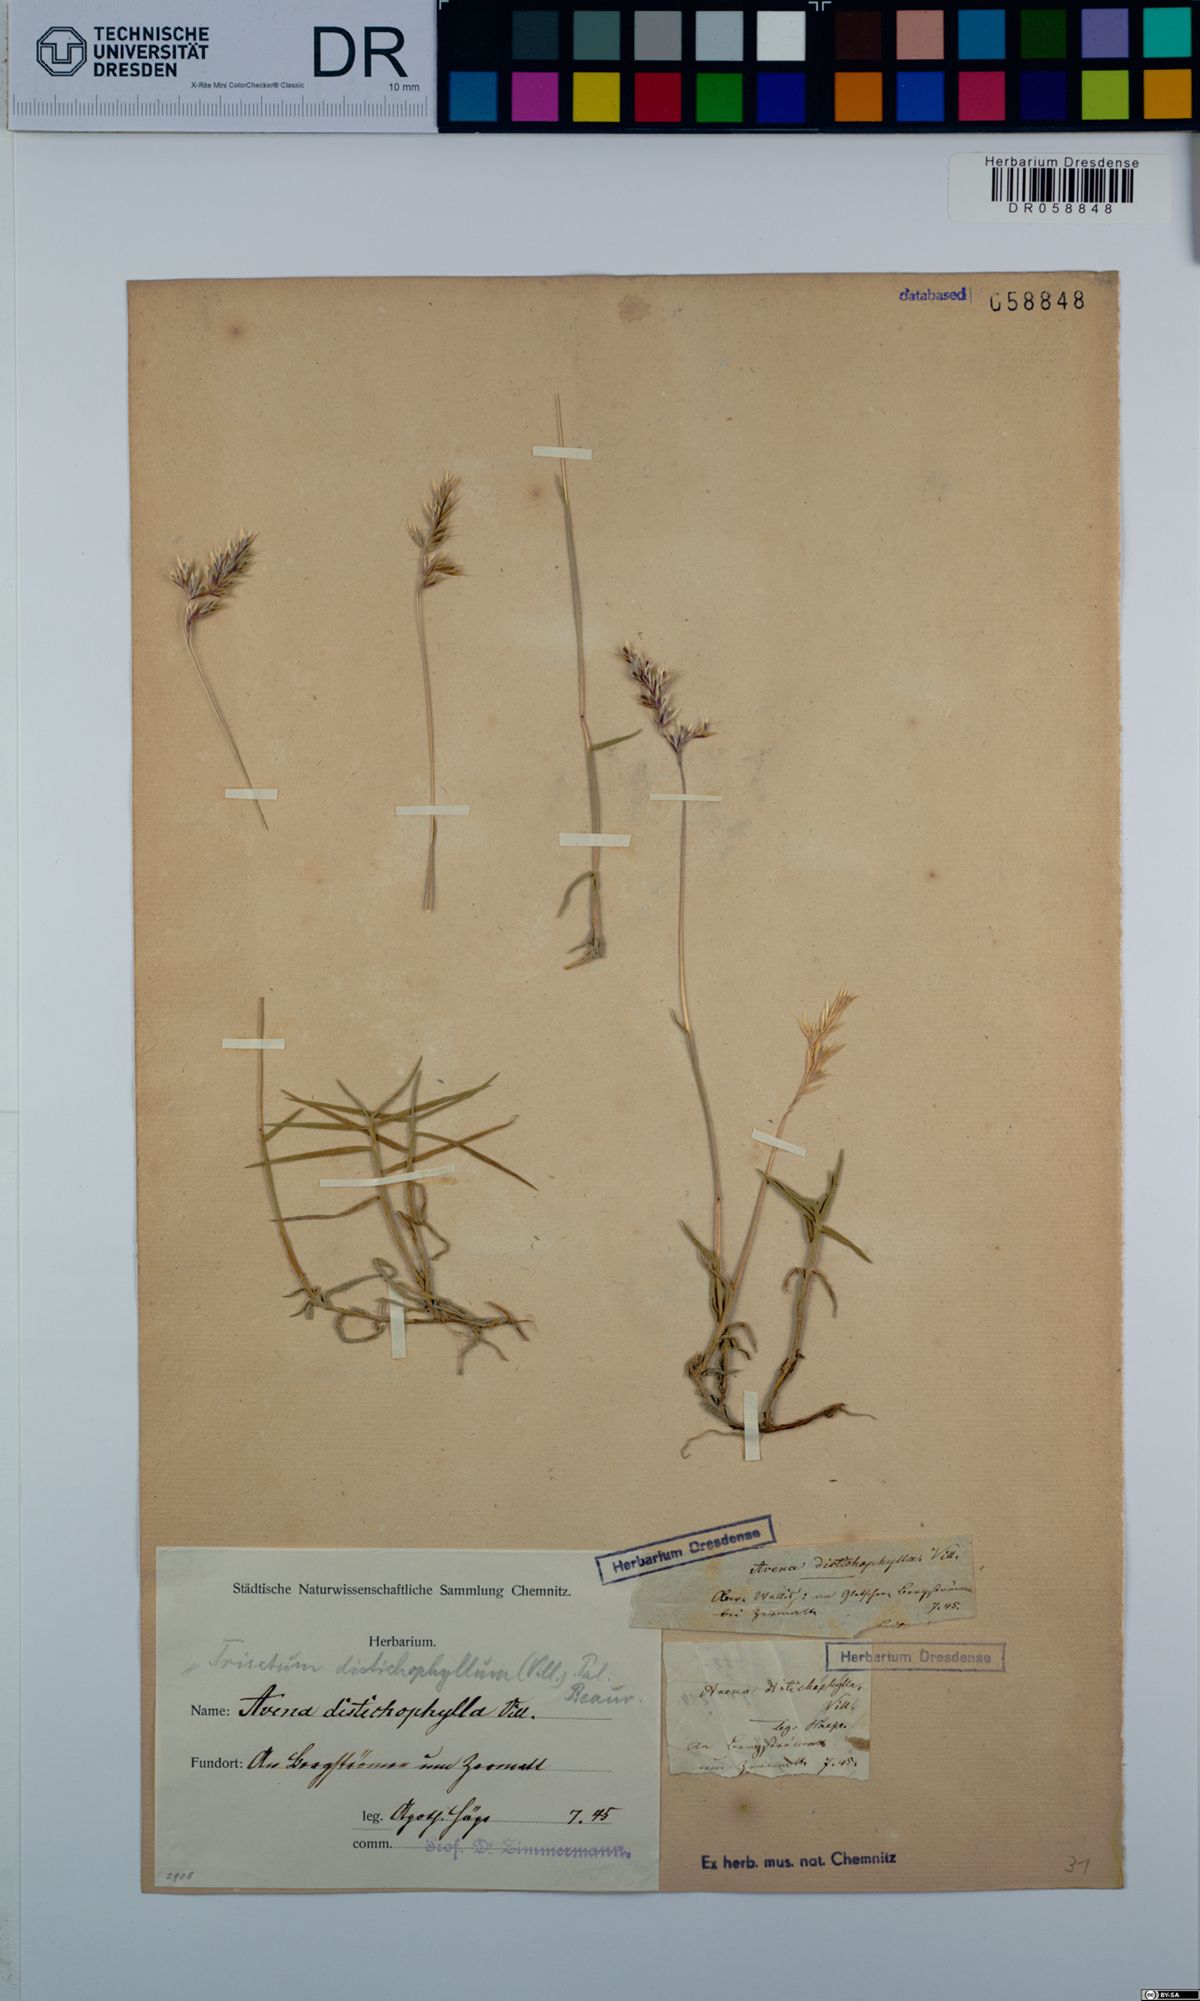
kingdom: Plantae
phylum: Tracheophyta
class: Liliopsida
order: Poales
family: Poaceae
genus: Acrospelion
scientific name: Acrospelion distichophyllum
